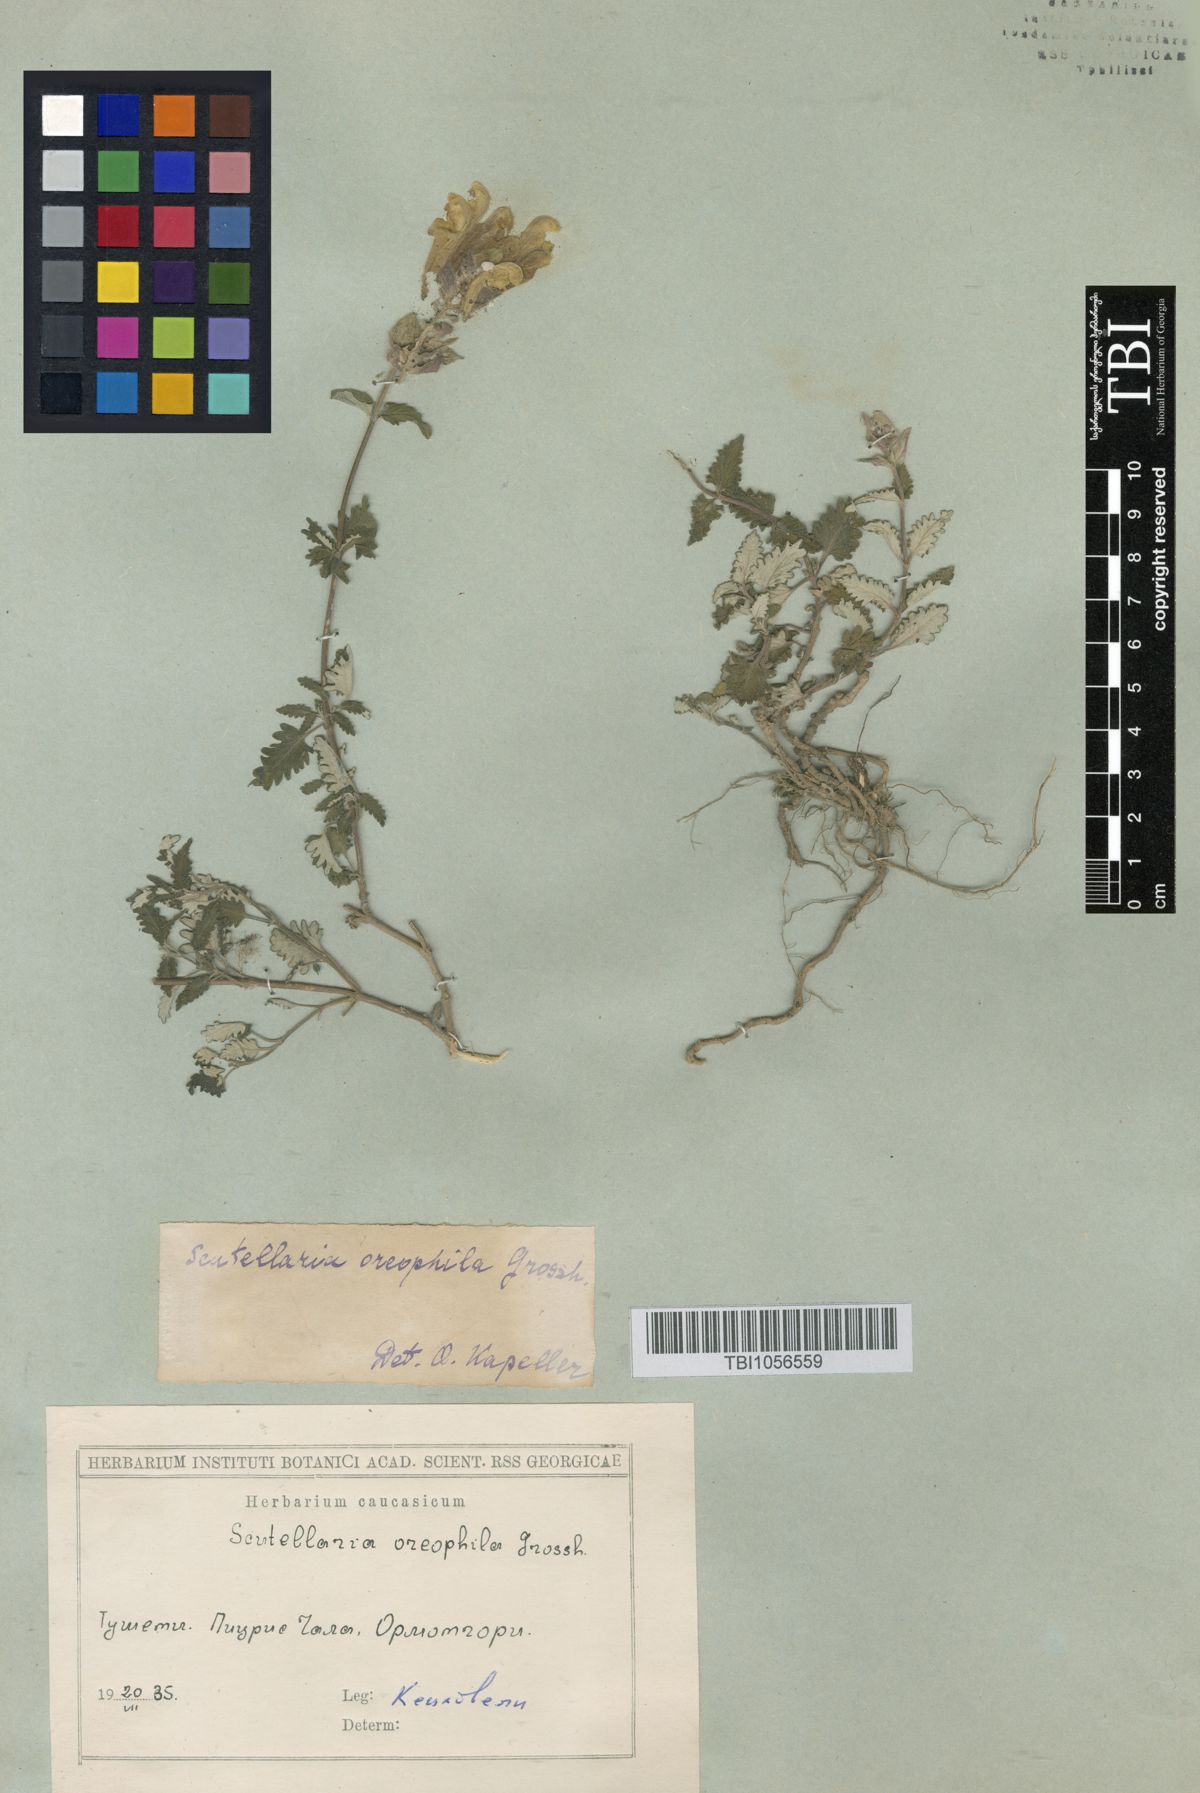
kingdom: Plantae
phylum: Tracheophyta
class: Magnoliopsida
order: Lamiales
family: Lamiaceae
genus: Scutellaria
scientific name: Scutellaria oreophila
